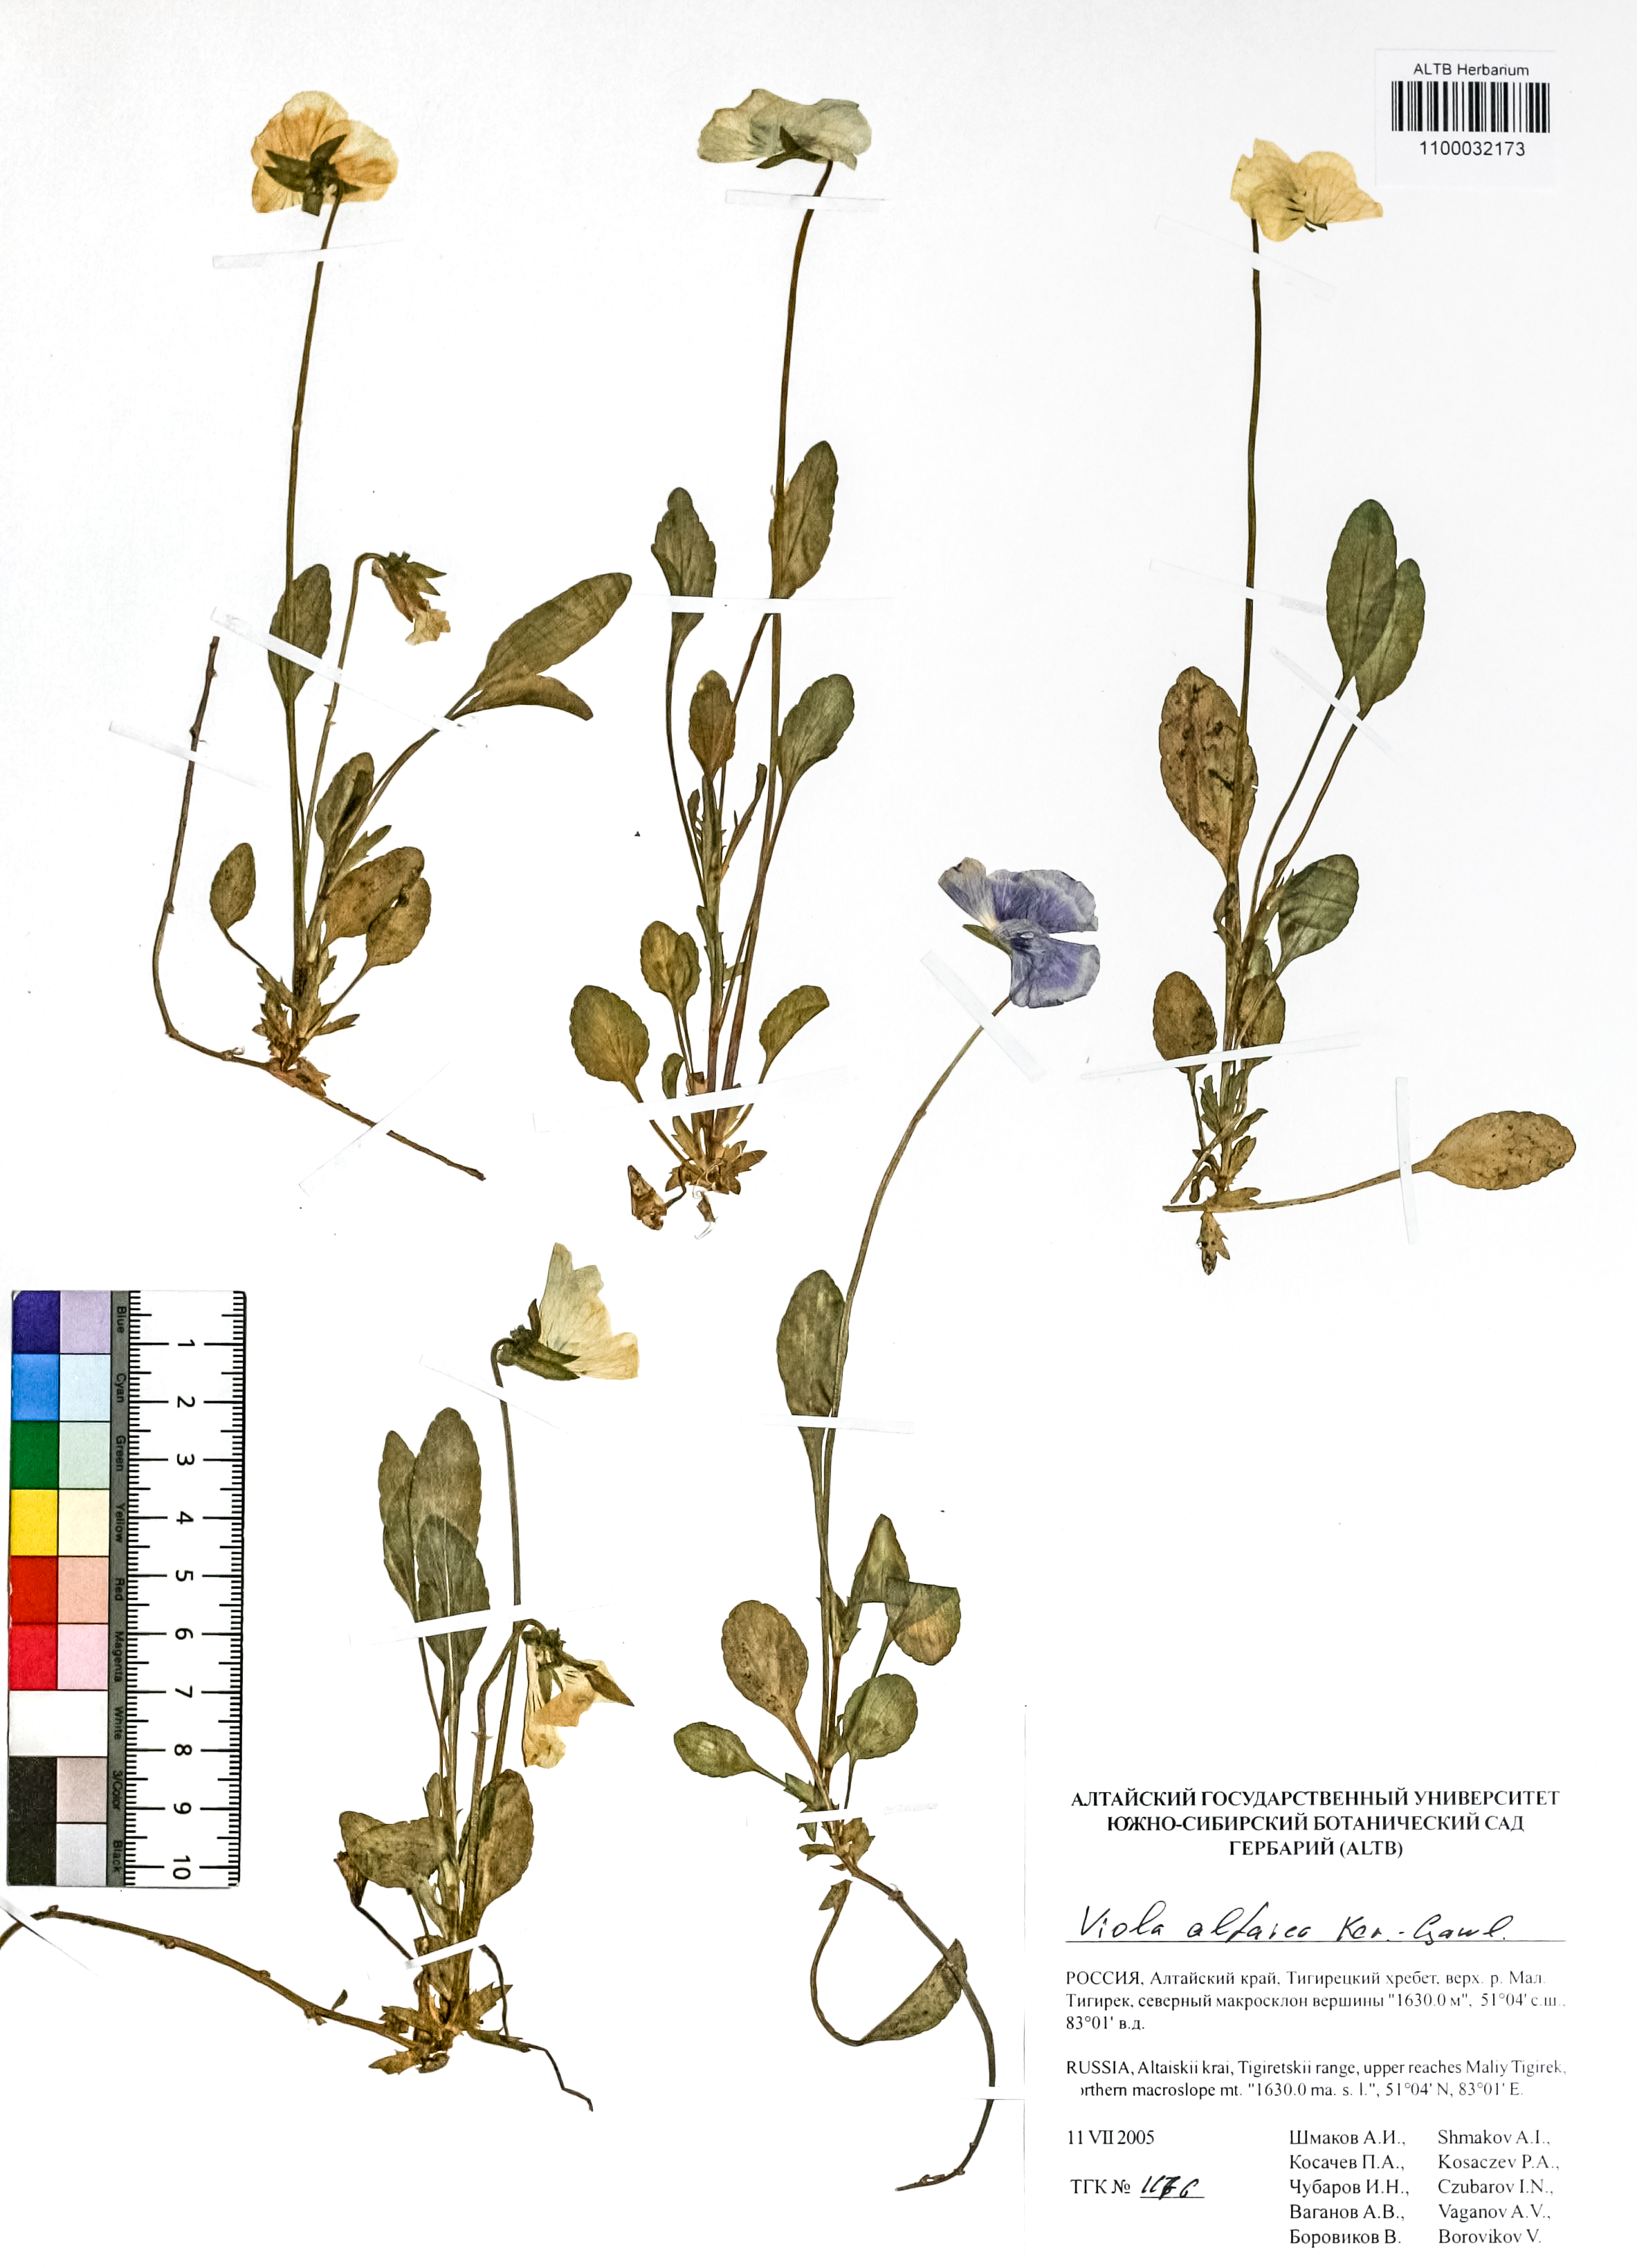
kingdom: Plantae
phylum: Tracheophyta
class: Magnoliopsida
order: Malpighiales
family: Violaceae
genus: Viola
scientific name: Viola altaica
